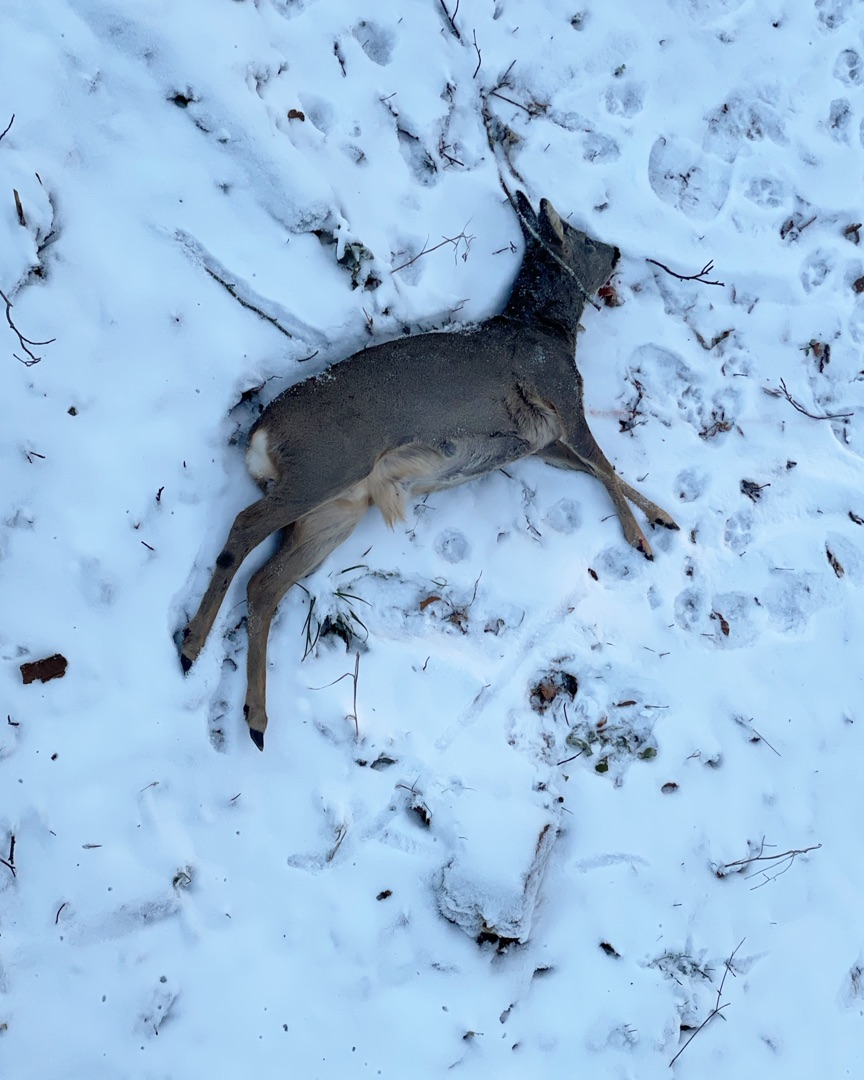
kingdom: Animalia
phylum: Chordata
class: Mammalia
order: Artiodactyla
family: Cervidae
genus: Capreolus
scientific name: Capreolus capreolus
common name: Rådyr
